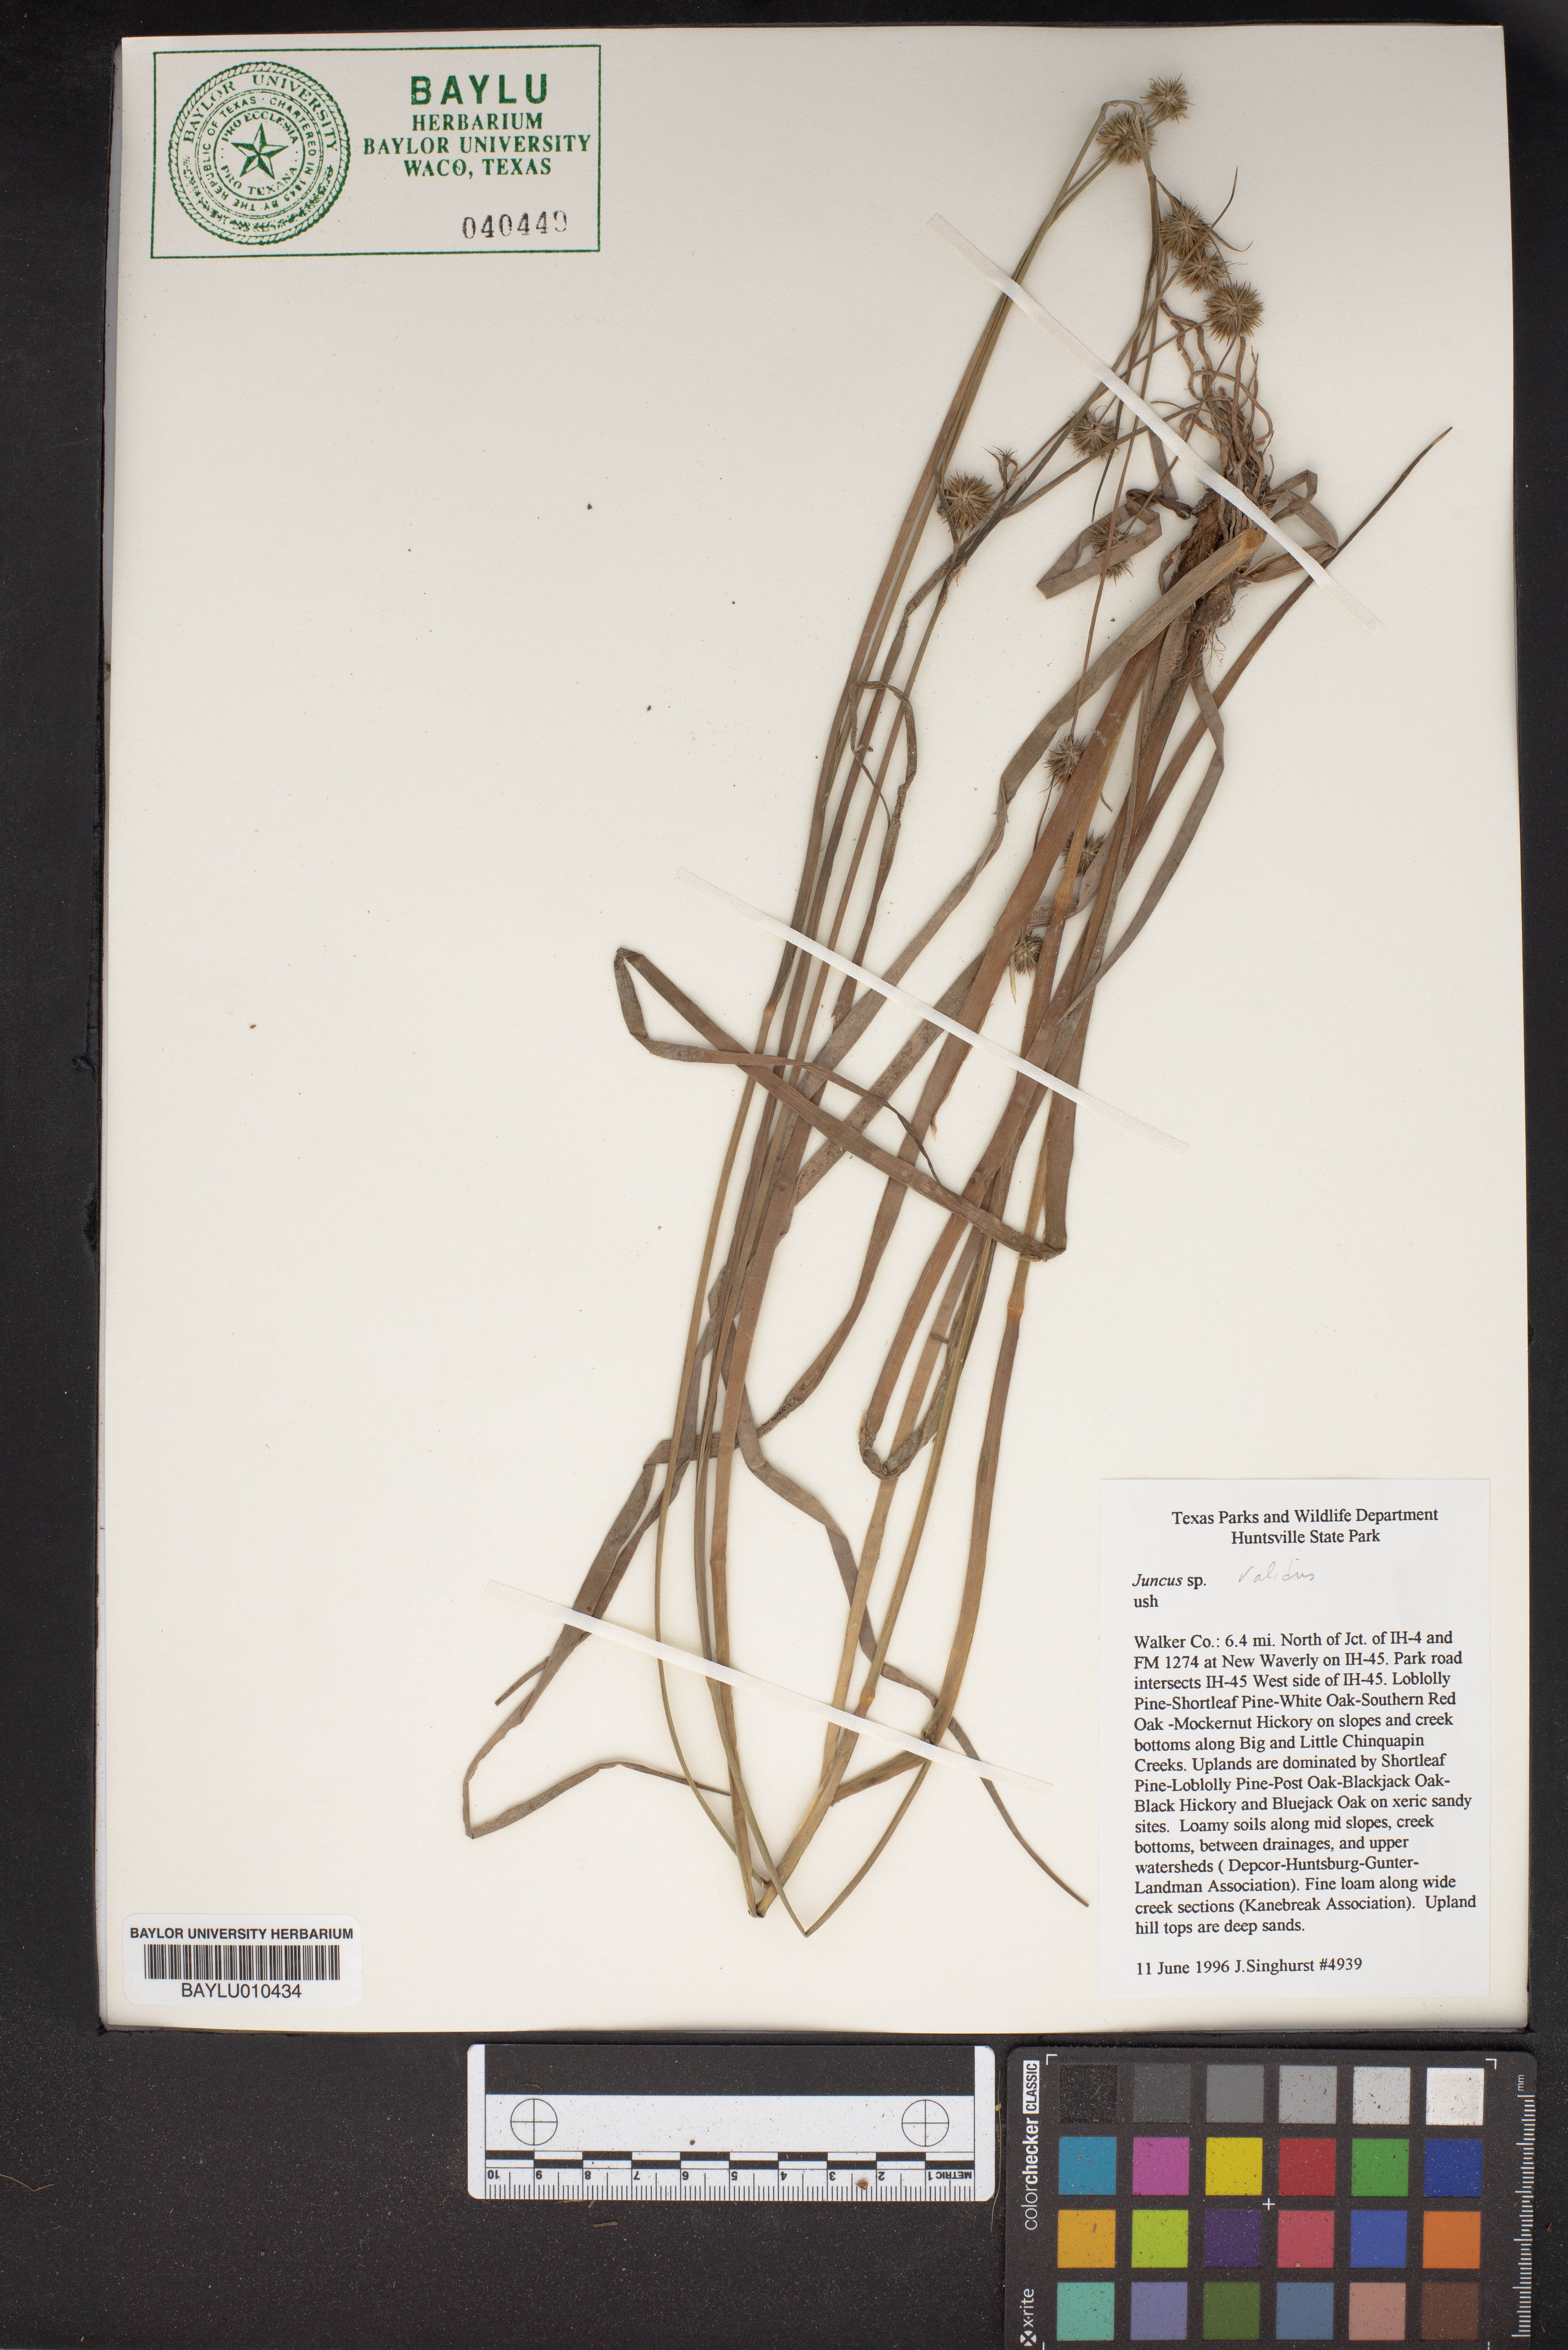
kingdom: Plantae
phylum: Tracheophyta
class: Liliopsida
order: Poales
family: Juncaceae
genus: Juncus
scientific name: Juncus validus
